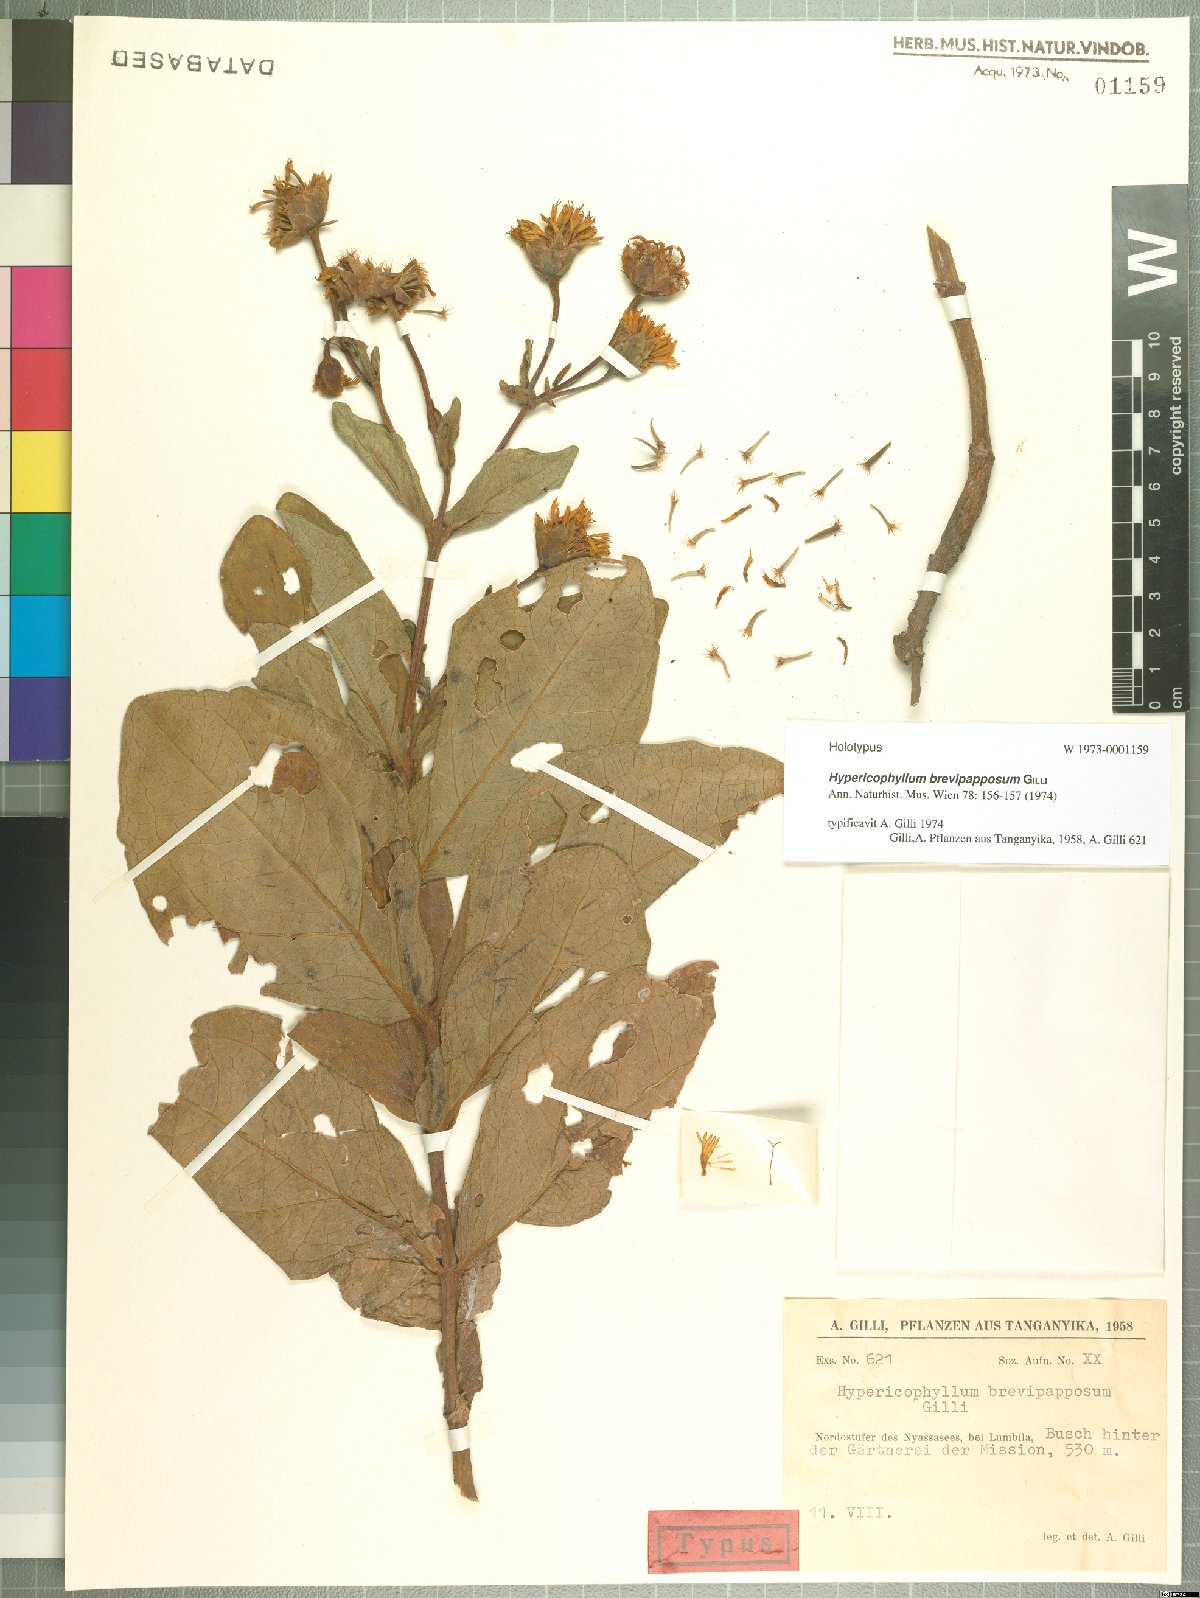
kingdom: Plantae
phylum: Tracheophyta
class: Magnoliopsida
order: Asterales
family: Asteraceae
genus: Hypericophyllum
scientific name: Hypericophyllum brevipapposum
